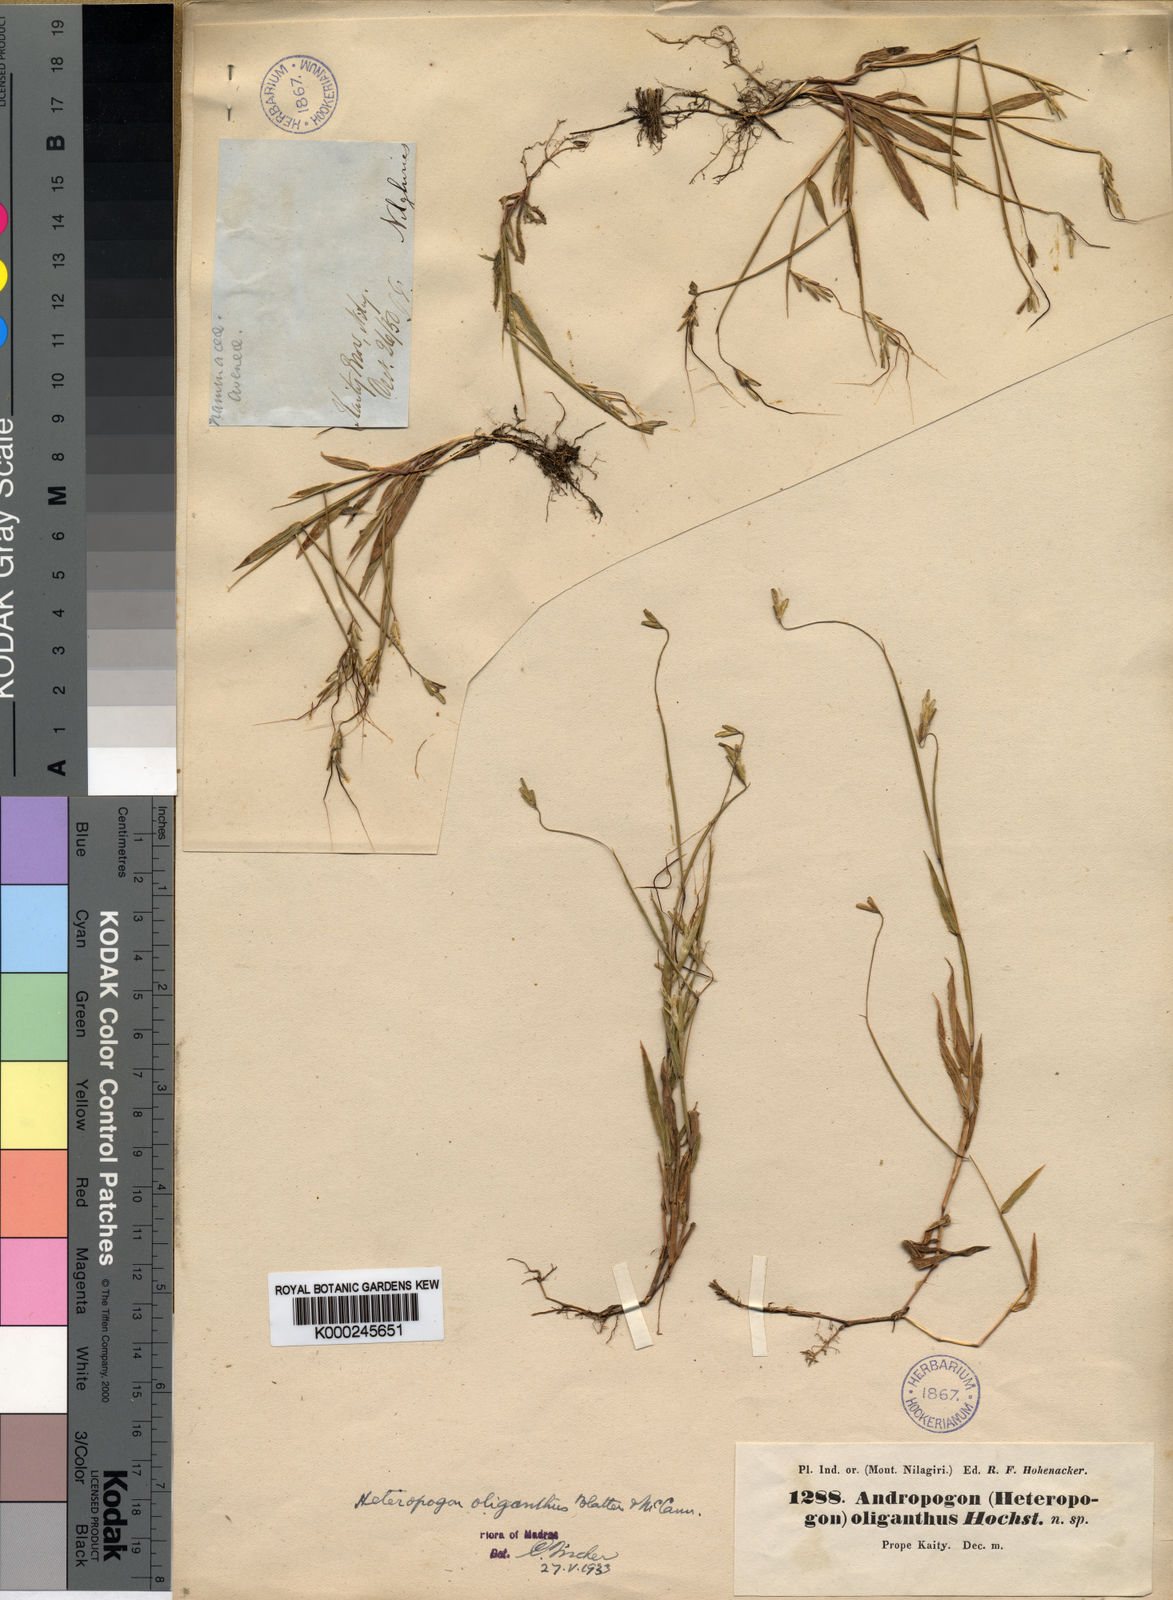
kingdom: Plantae
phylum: Tracheophyta
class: Liliopsida
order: Poales
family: Poaceae
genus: Euclasta
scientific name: Euclasta oligantha
